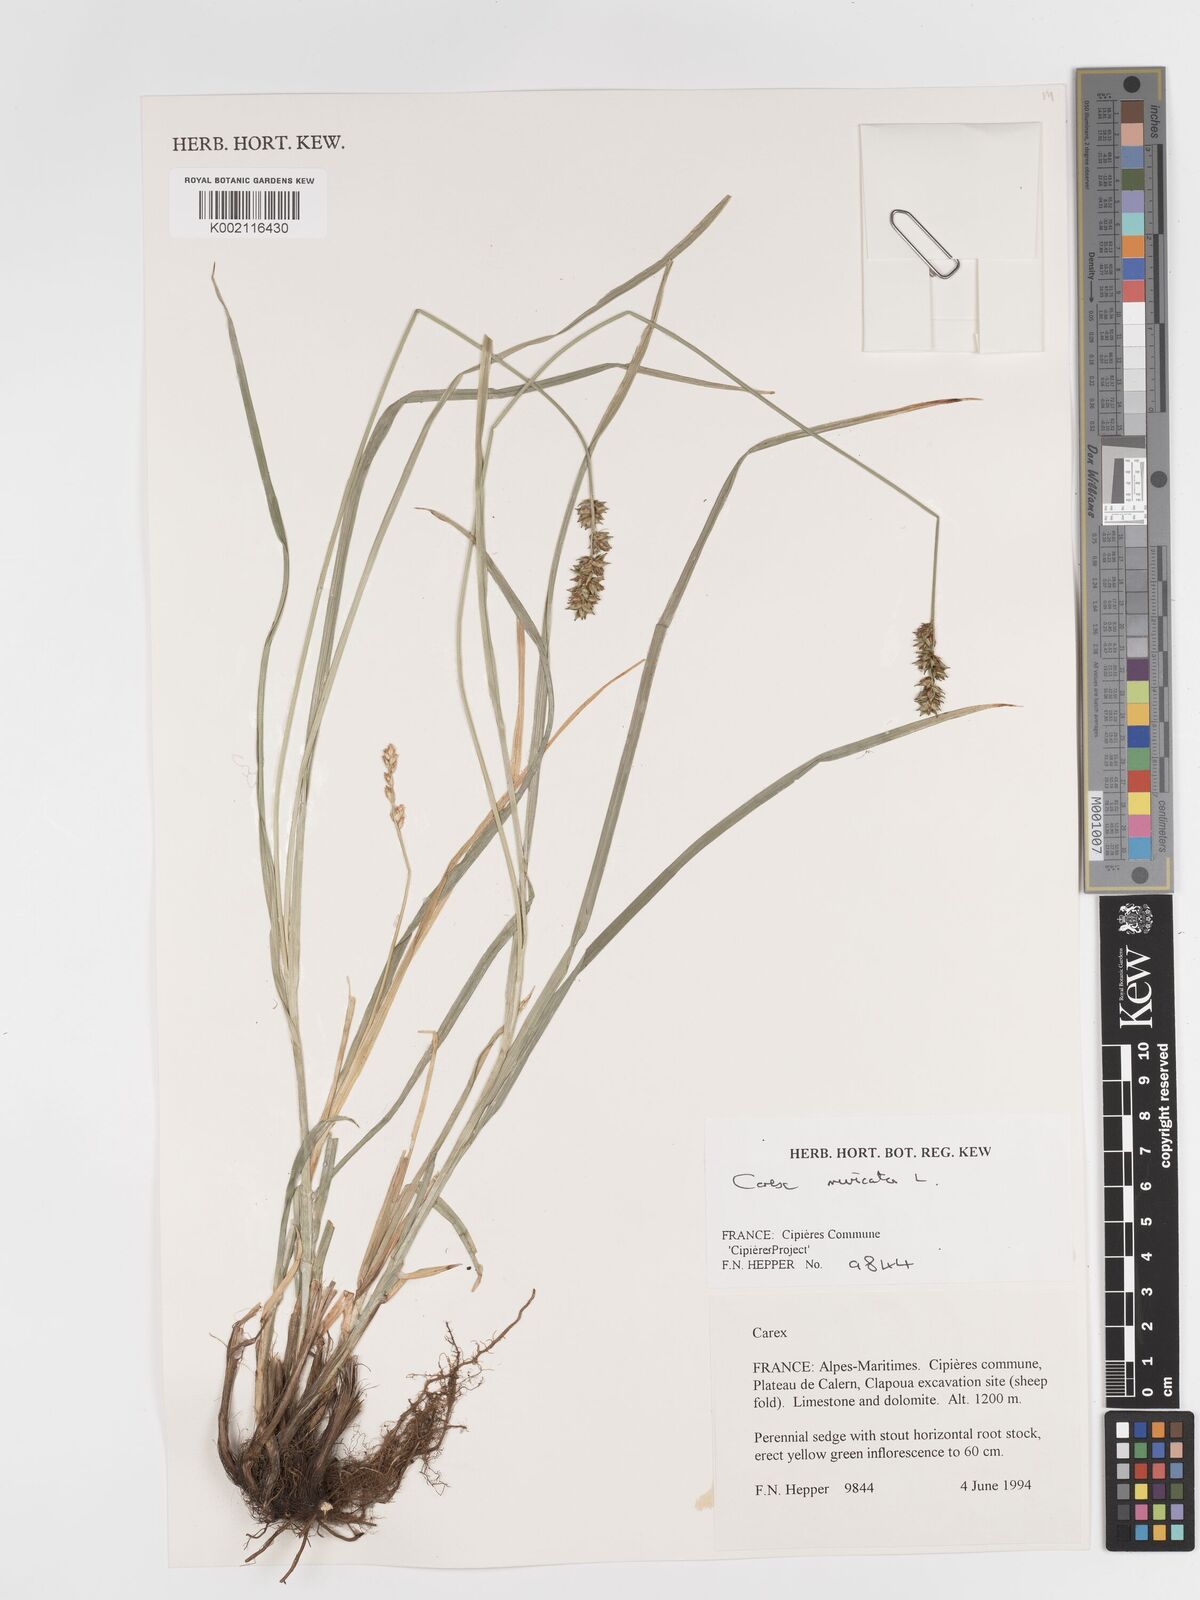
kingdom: Plantae
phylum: Tracheophyta
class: Liliopsida
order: Poales
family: Cyperaceae
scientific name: Cyperaceae
